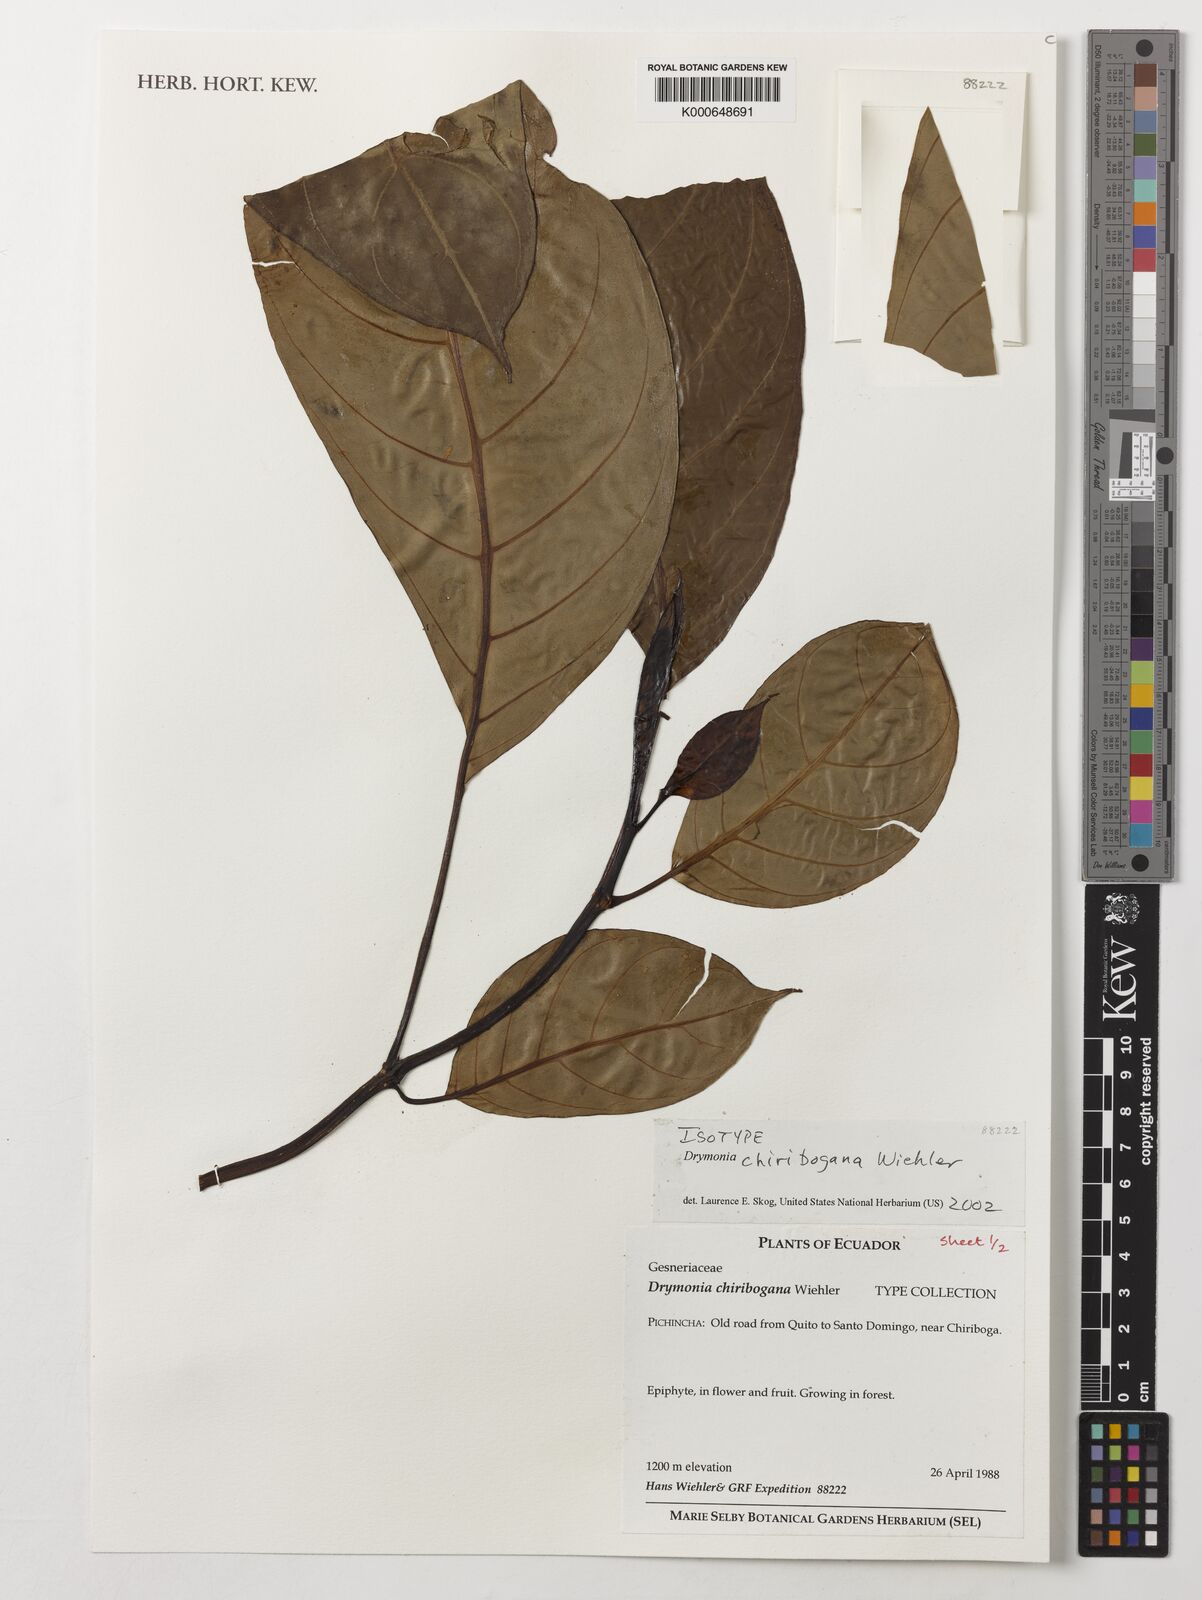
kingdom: Plantae
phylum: Tracheophyta
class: Magnoliopsida
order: Lamiales
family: Gesneriaceae
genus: Drymonia
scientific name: Drymonia chiribogana
